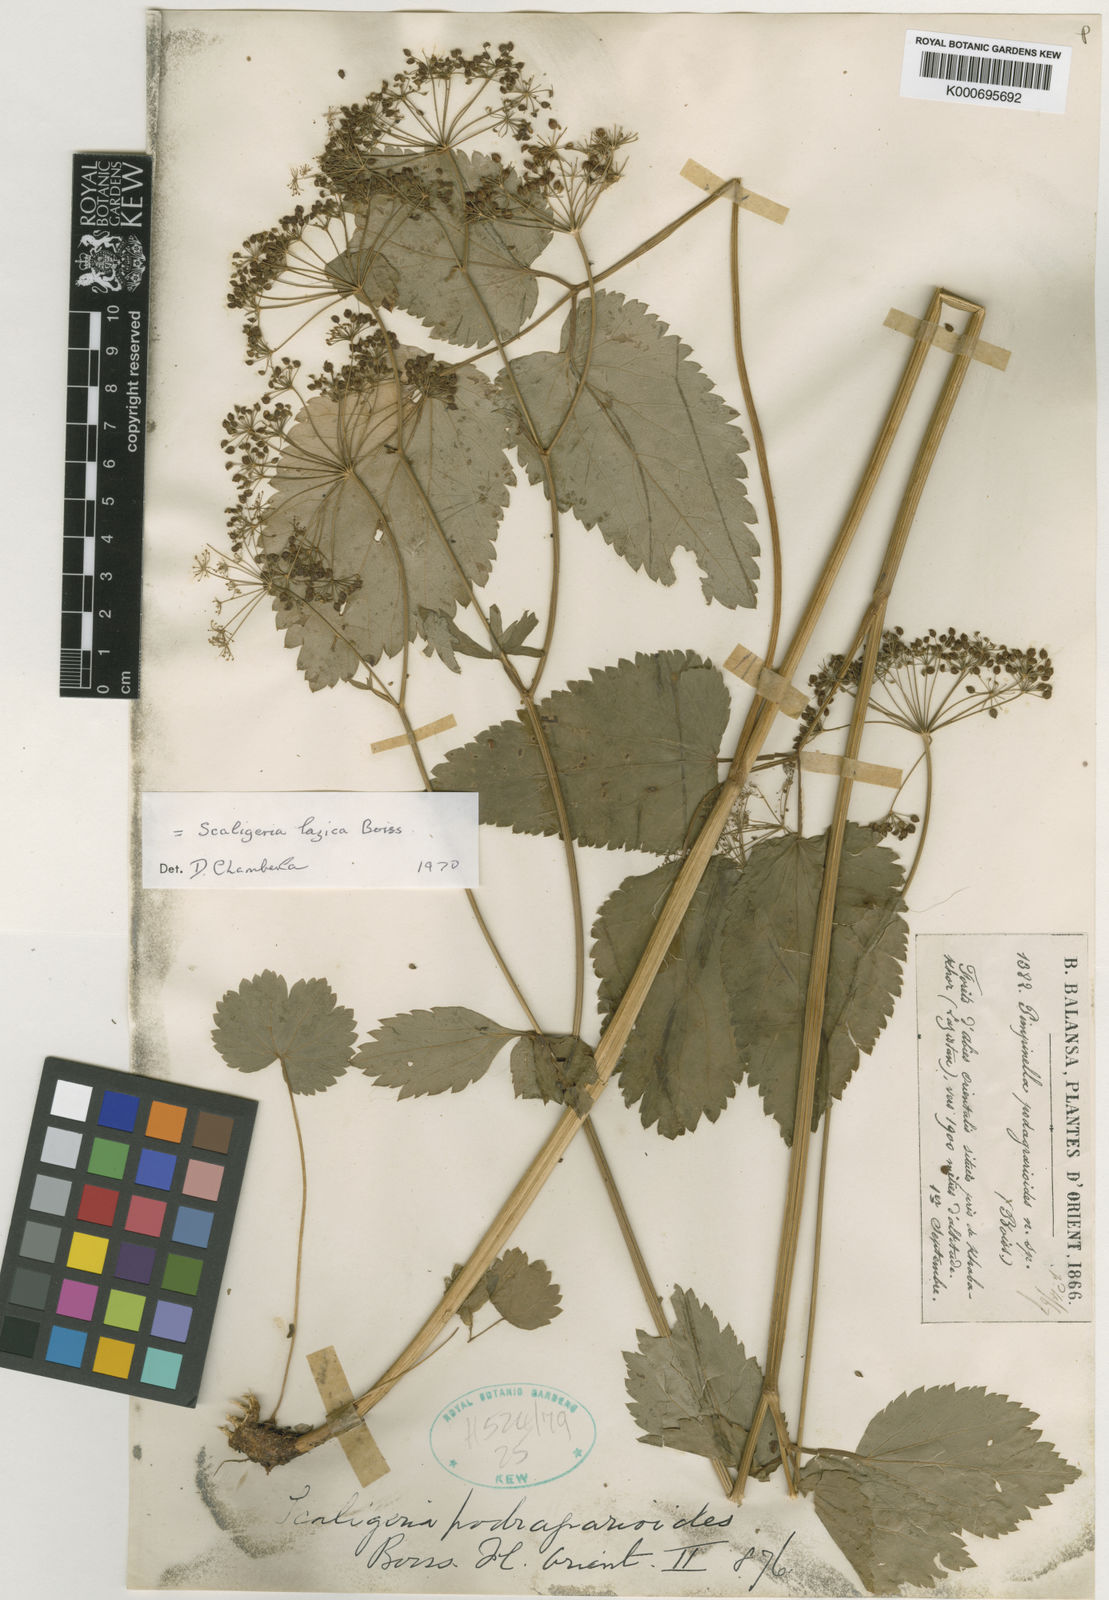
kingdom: Plantae
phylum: Tracheophyta
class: Magnoliopsida
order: Apiales
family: Apiaceae
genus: Scaligeria
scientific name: Scaligeria lazica
